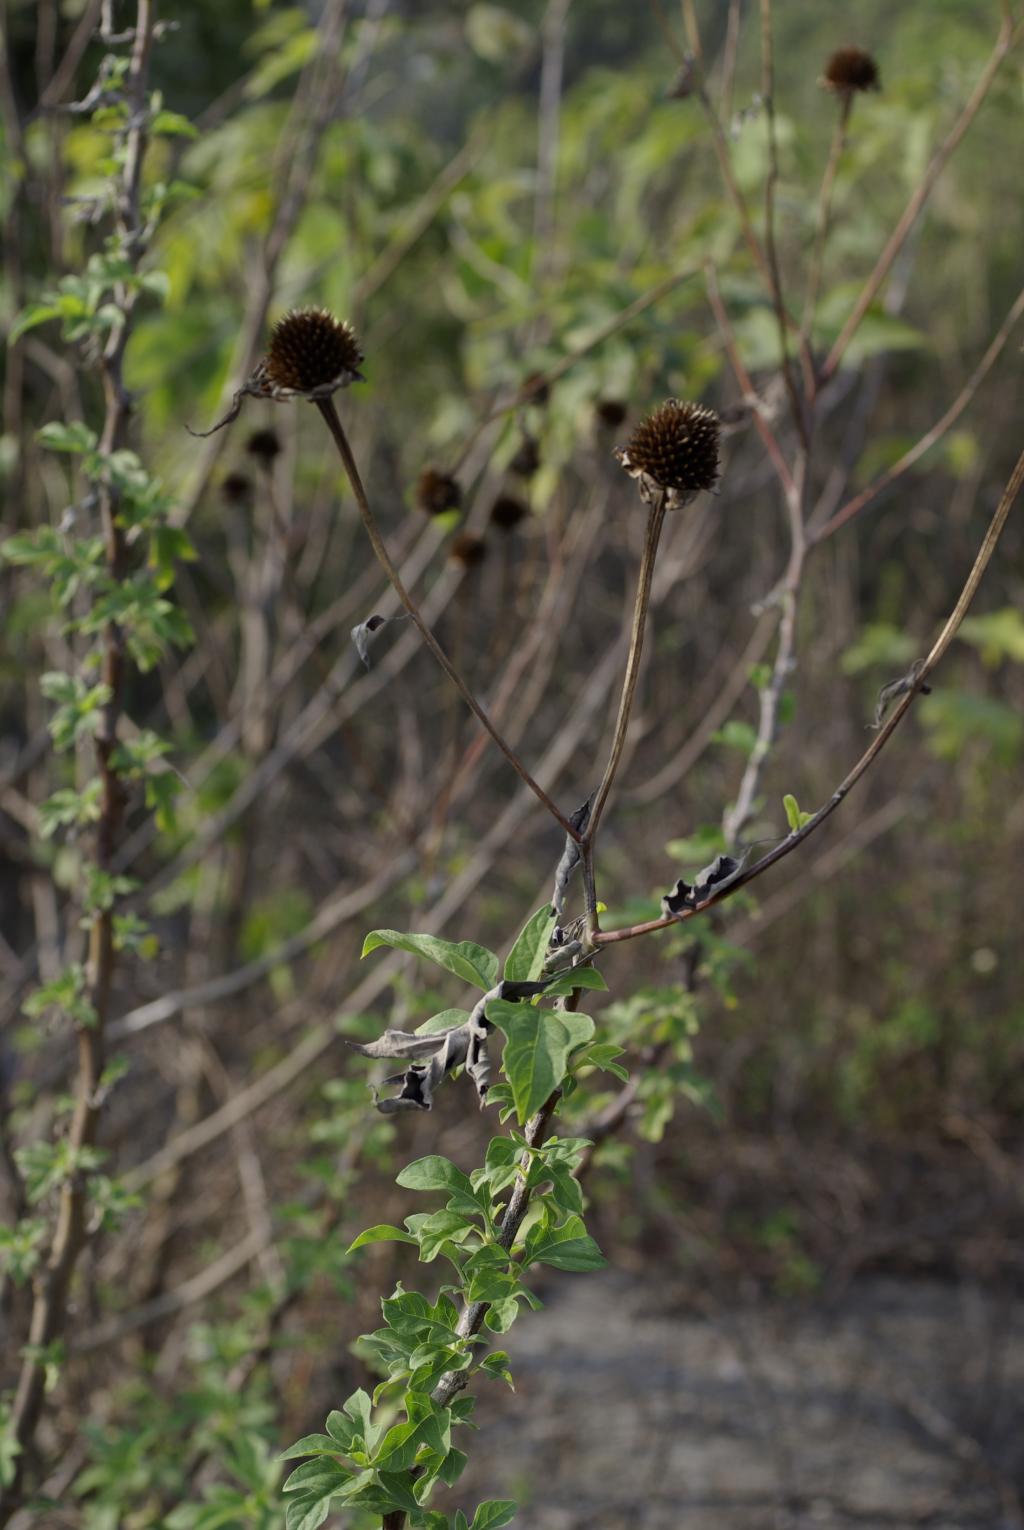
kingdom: Plantae
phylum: Tracheophyta
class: Magnoliopsida
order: Asterales
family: Asteraceae
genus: Tithonia
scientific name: Tithonia diversifolia
